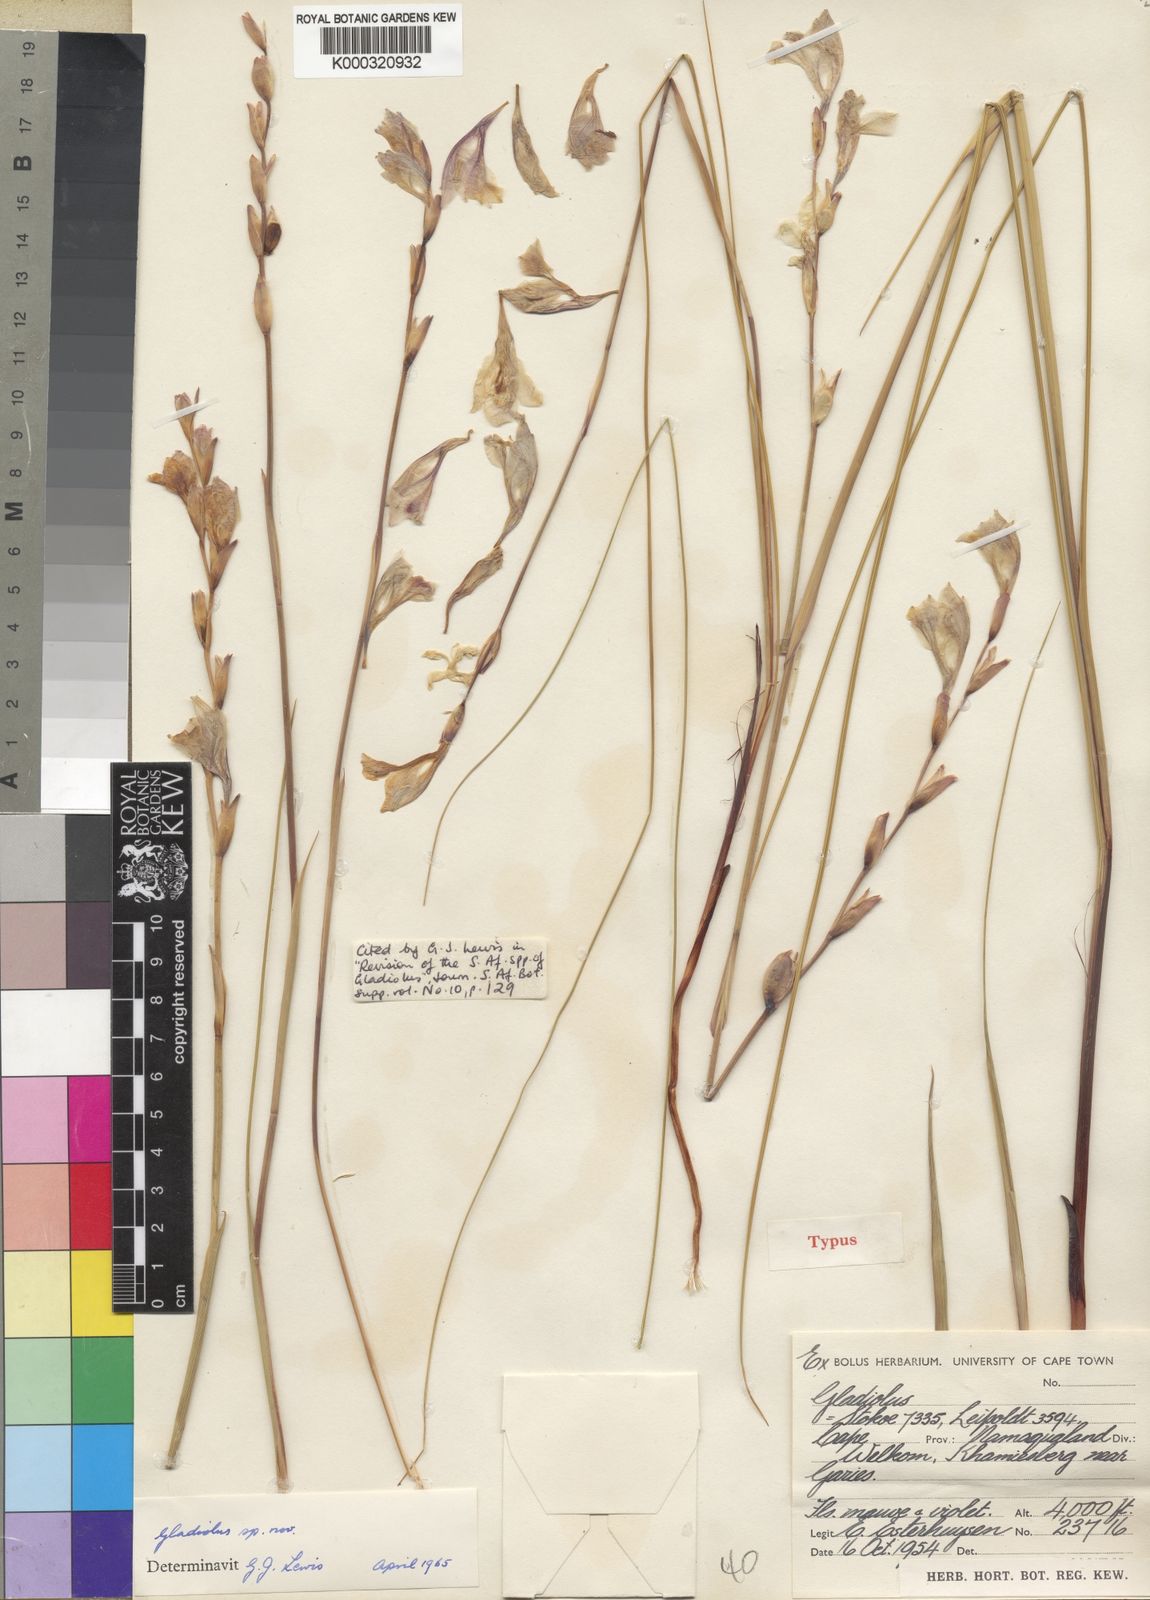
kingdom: Plantae
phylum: Tracheophyta
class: Liliopsida
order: Asparagales
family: Iridaceae
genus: Gladiolus
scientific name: Gladiolus kamiesbergensis
